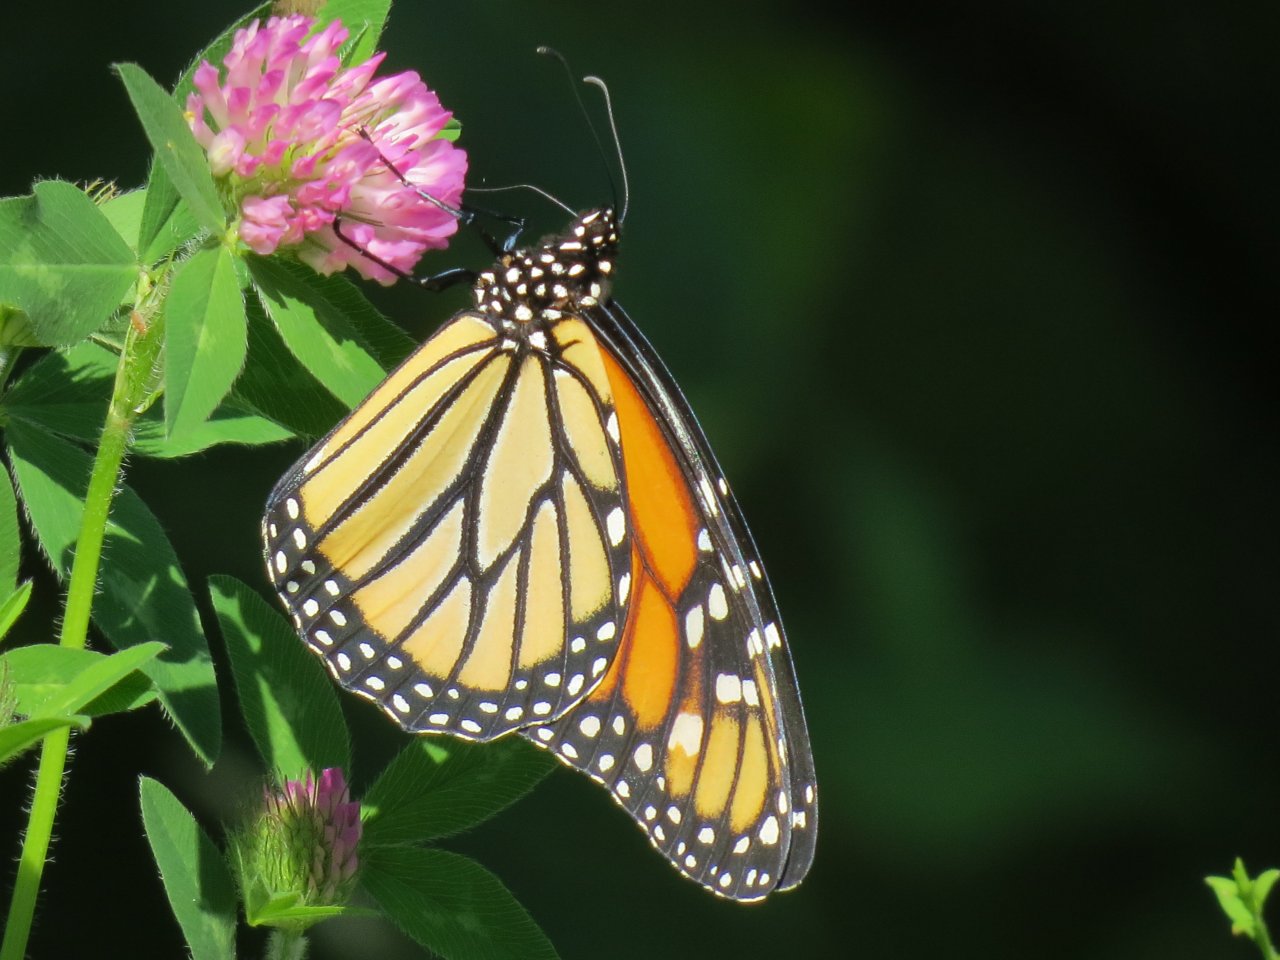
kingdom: Animalia
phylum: Arthropoda
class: Insecta
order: Lepidoptera
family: Nymphalidae
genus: Danaus
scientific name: Danaus plexippus
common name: Monarch
